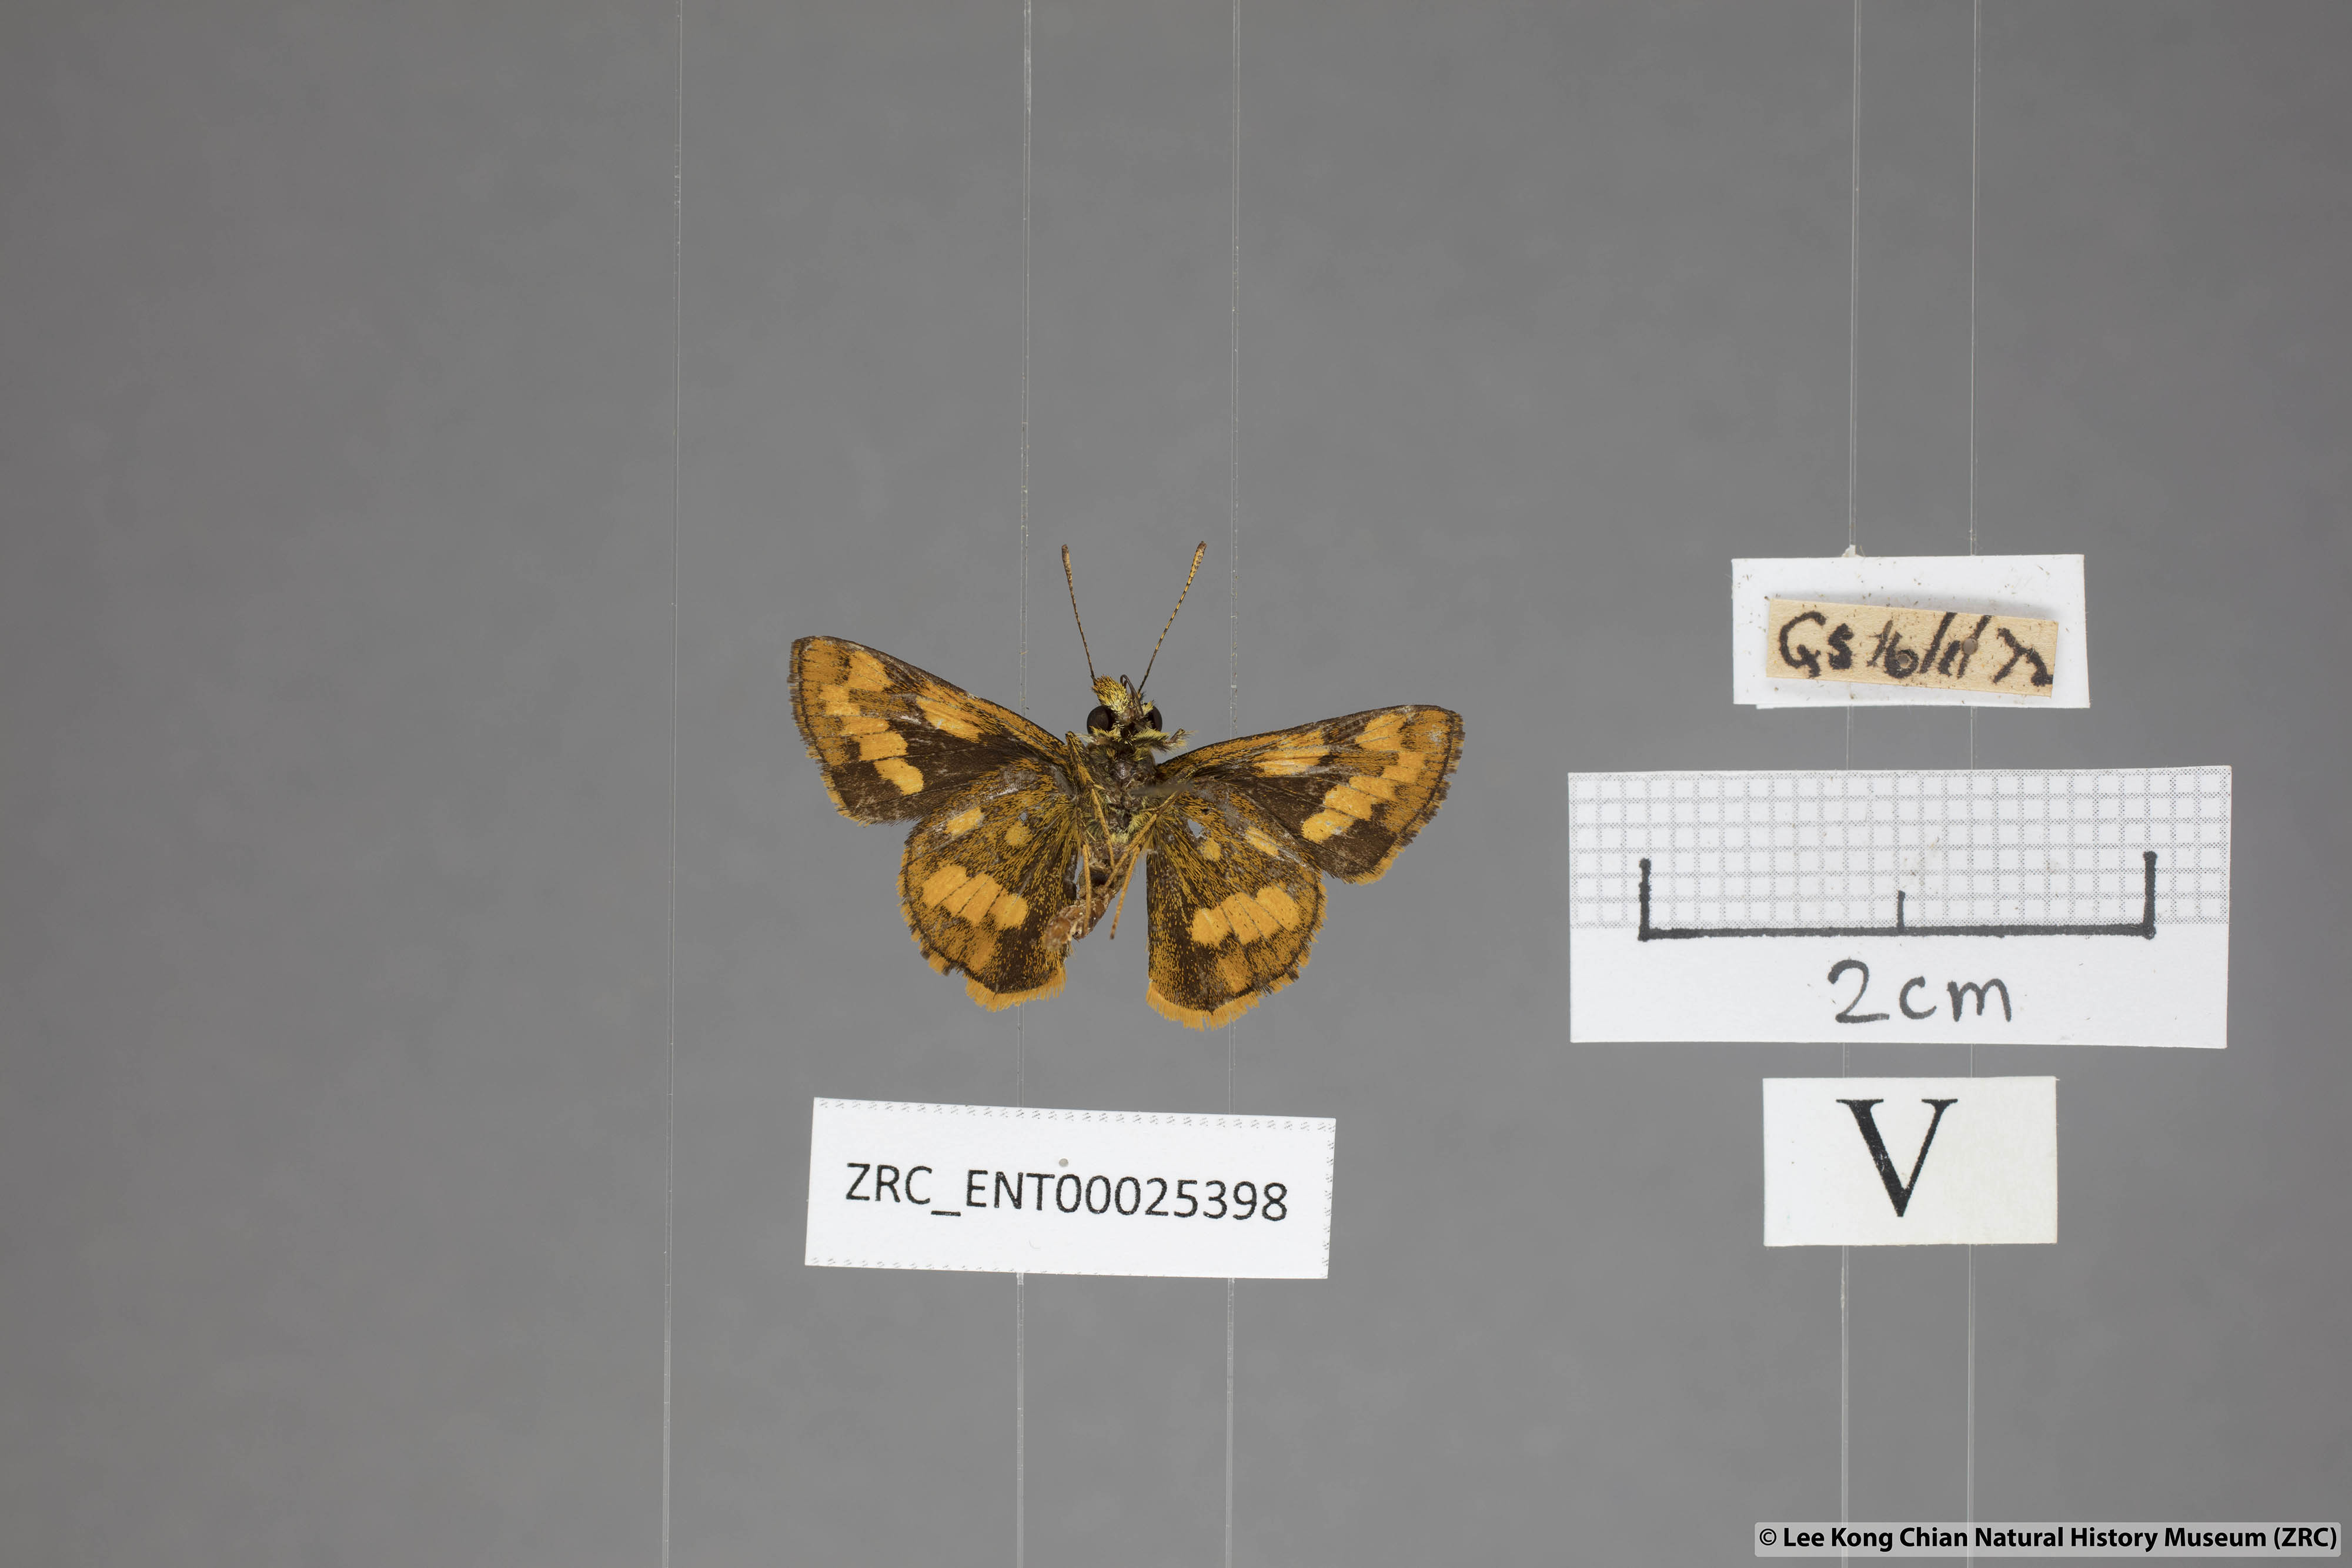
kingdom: Animalia
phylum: Arthropoda
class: Insecta
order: Lepidoptera
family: Hesperiidae
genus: Potanthus
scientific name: Potanthus ganda
